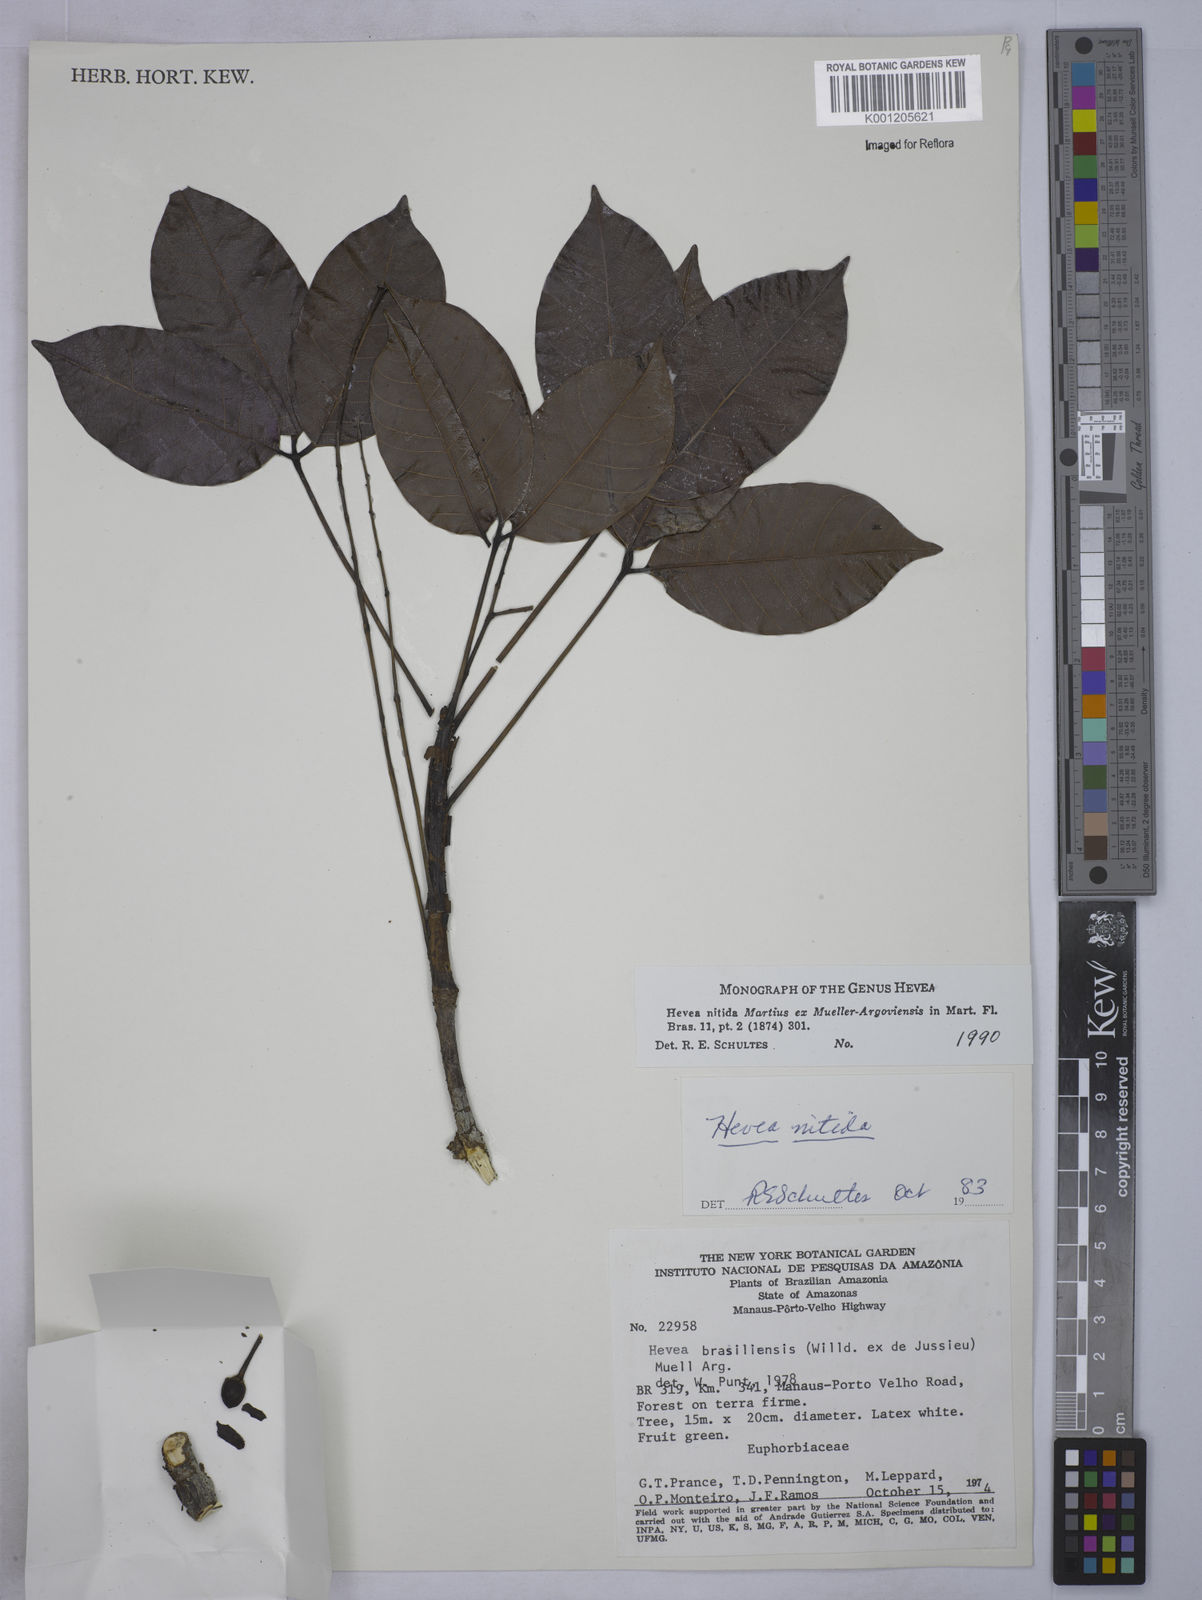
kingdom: Plantae
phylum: Tracheophyta
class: Magnoliopsida
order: Malpighiales
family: Euphorbiaceae
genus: Hevea
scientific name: Hevea
